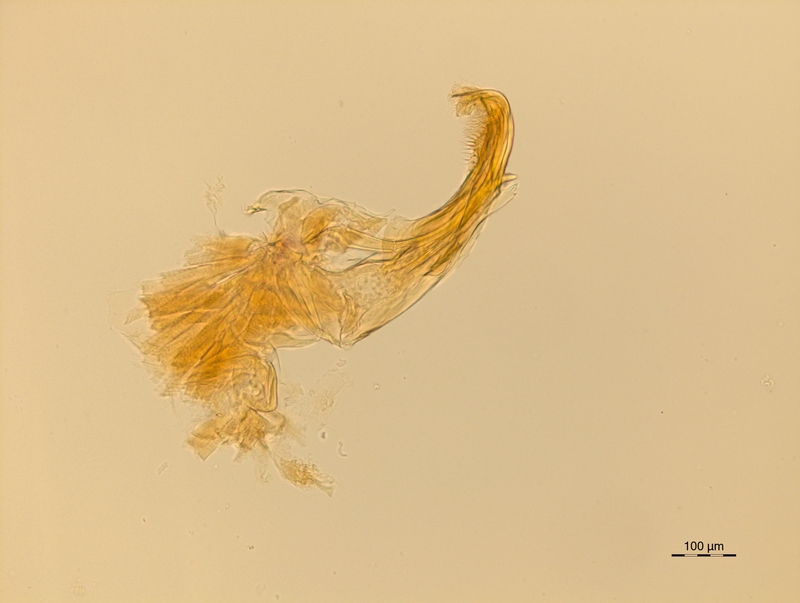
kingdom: Animalia
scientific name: Animalia
